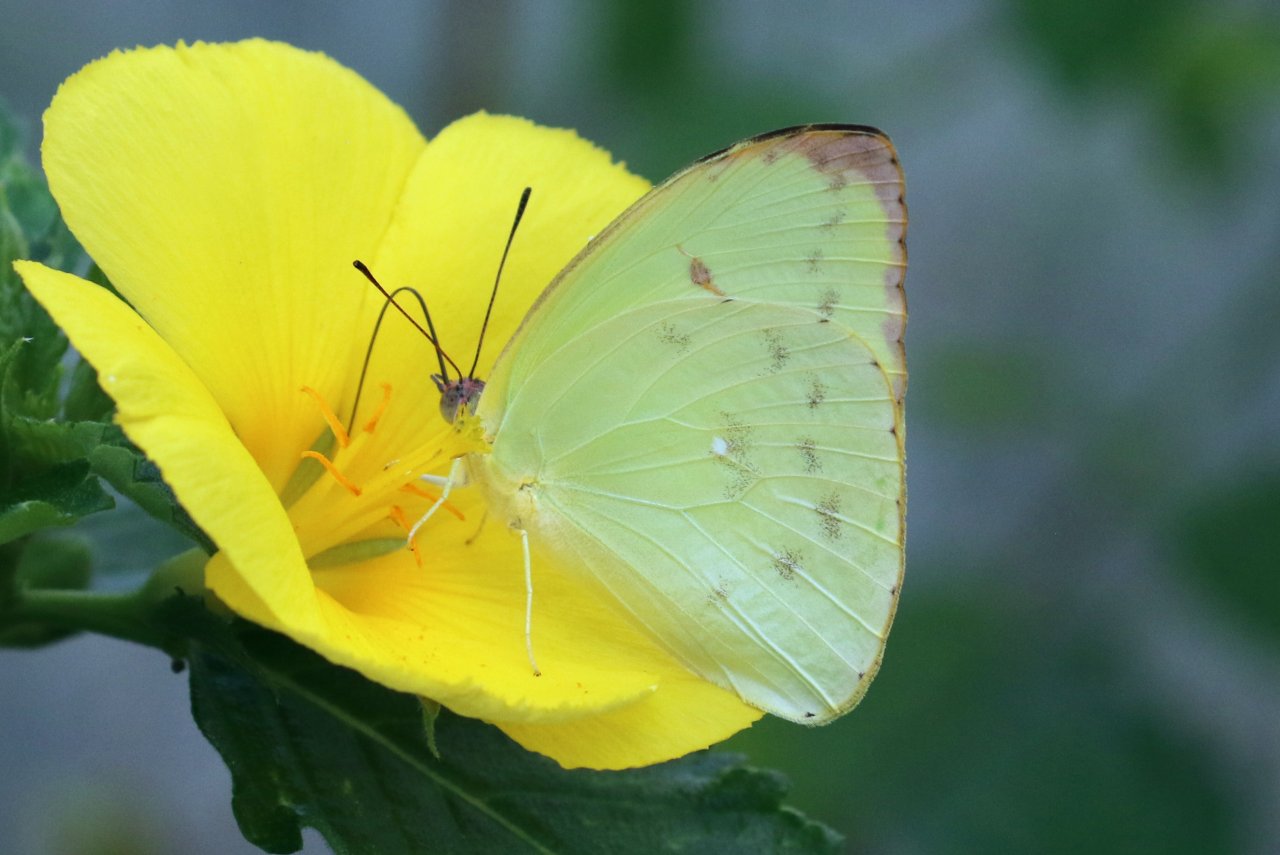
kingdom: Animalia
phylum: Arthropoda
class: Insecta
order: Lepidoptera
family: Pieridae
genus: Aphrissa
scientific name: Aphrissa statira
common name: Statira Sulphur
